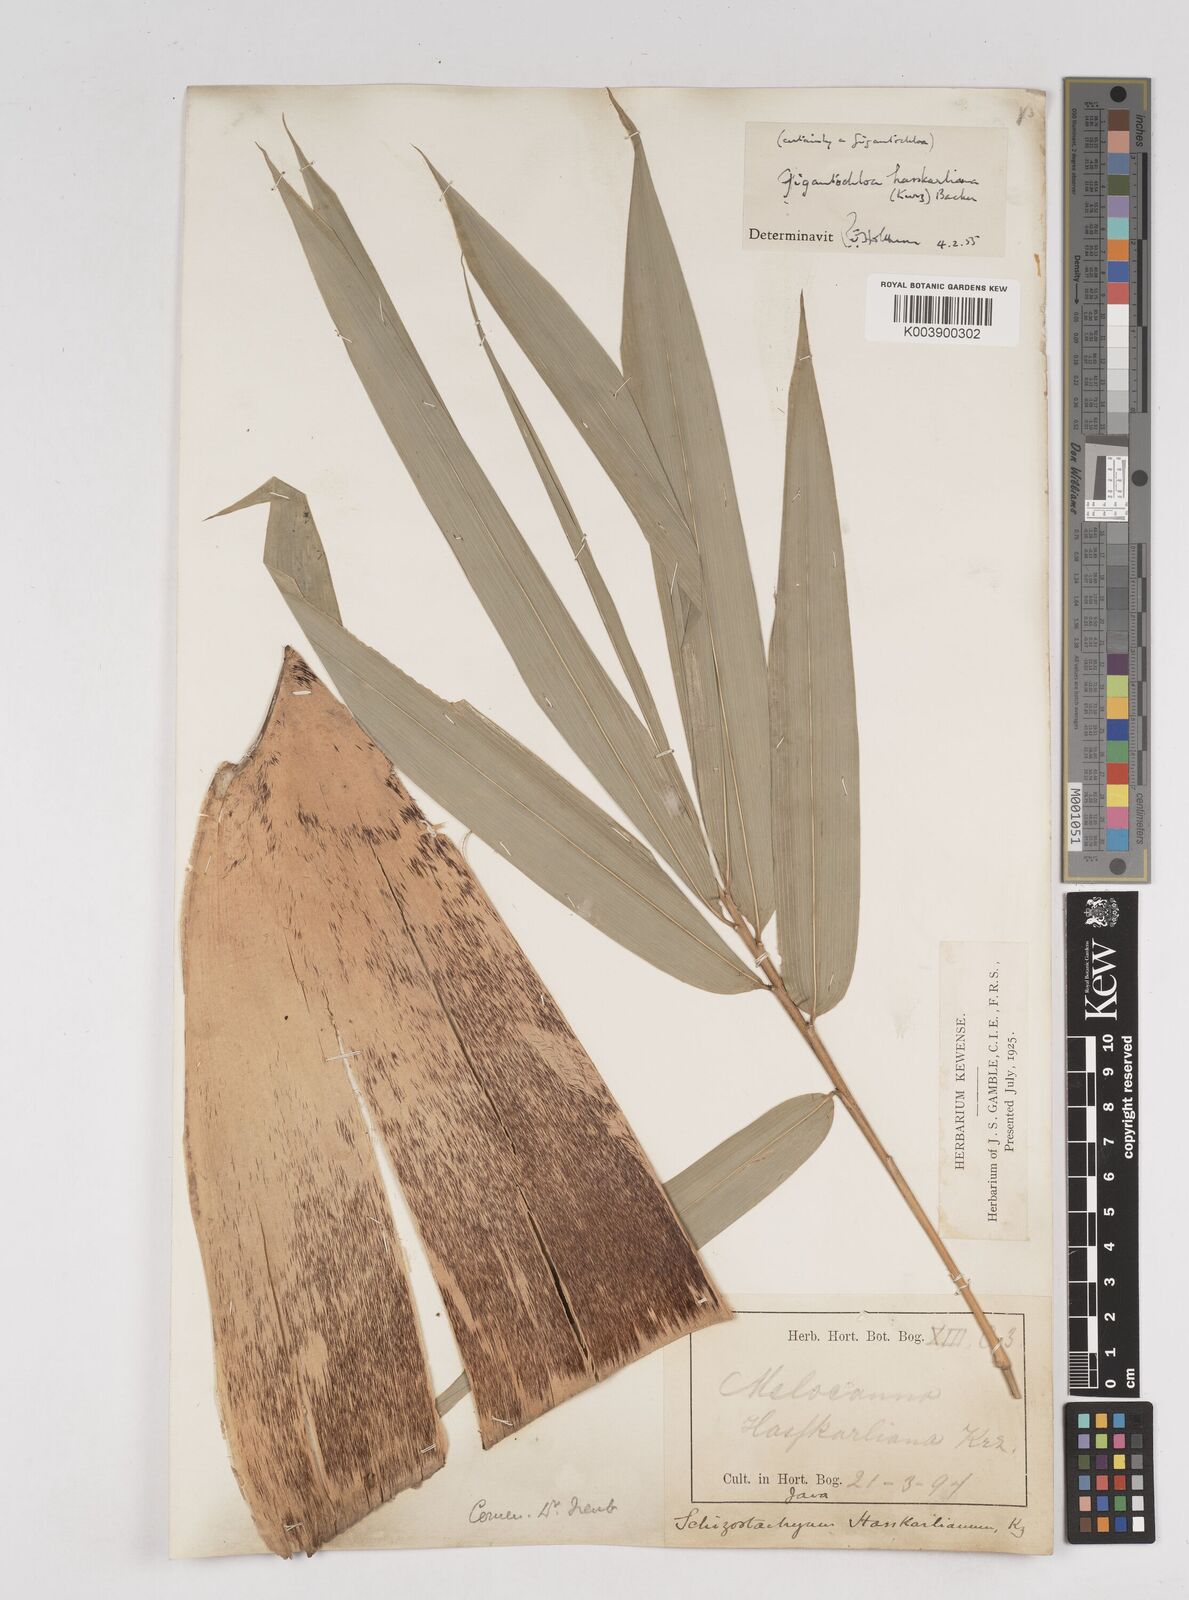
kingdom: Plantae
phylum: Tracheophyta
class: Liliopsida
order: Poales
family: Poaceae
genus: Gigantochloa
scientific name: Gigantochloa hasskarliana
